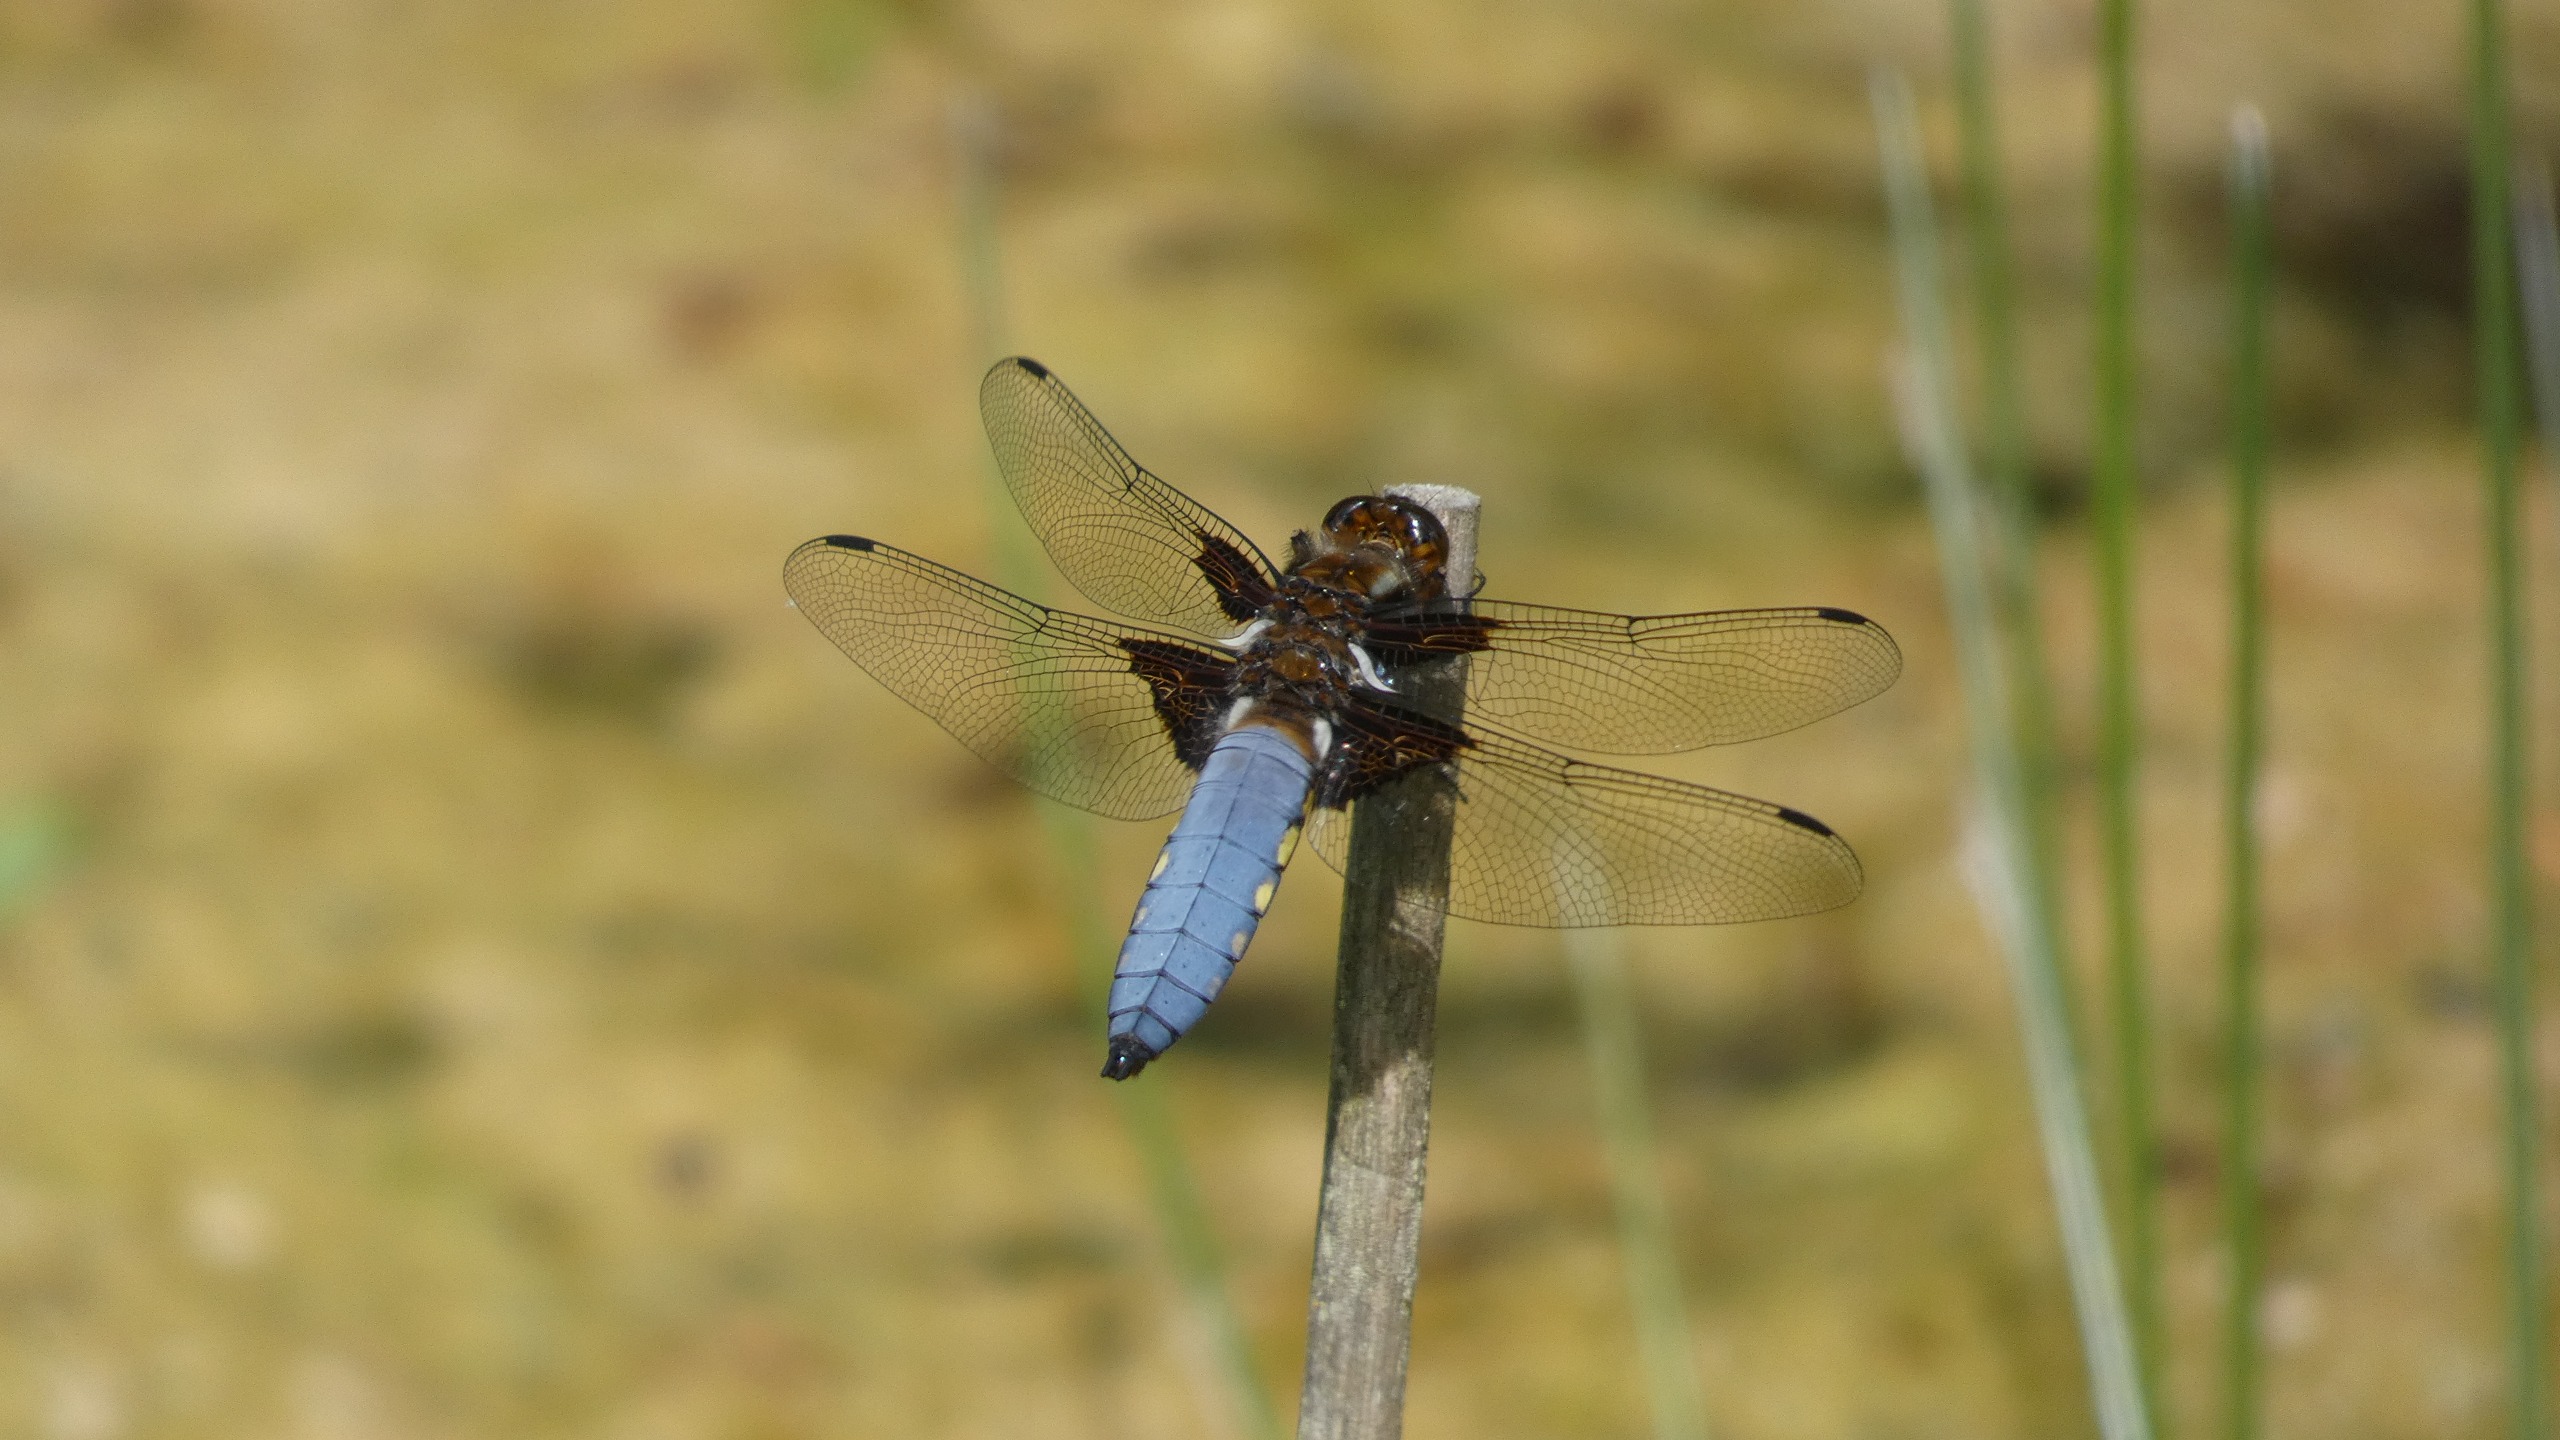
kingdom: Animalia
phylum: Arthropoda
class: Insecta
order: Odonata
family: Libellulidae
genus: Libellula
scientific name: Libellula depressa
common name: Blå libel
